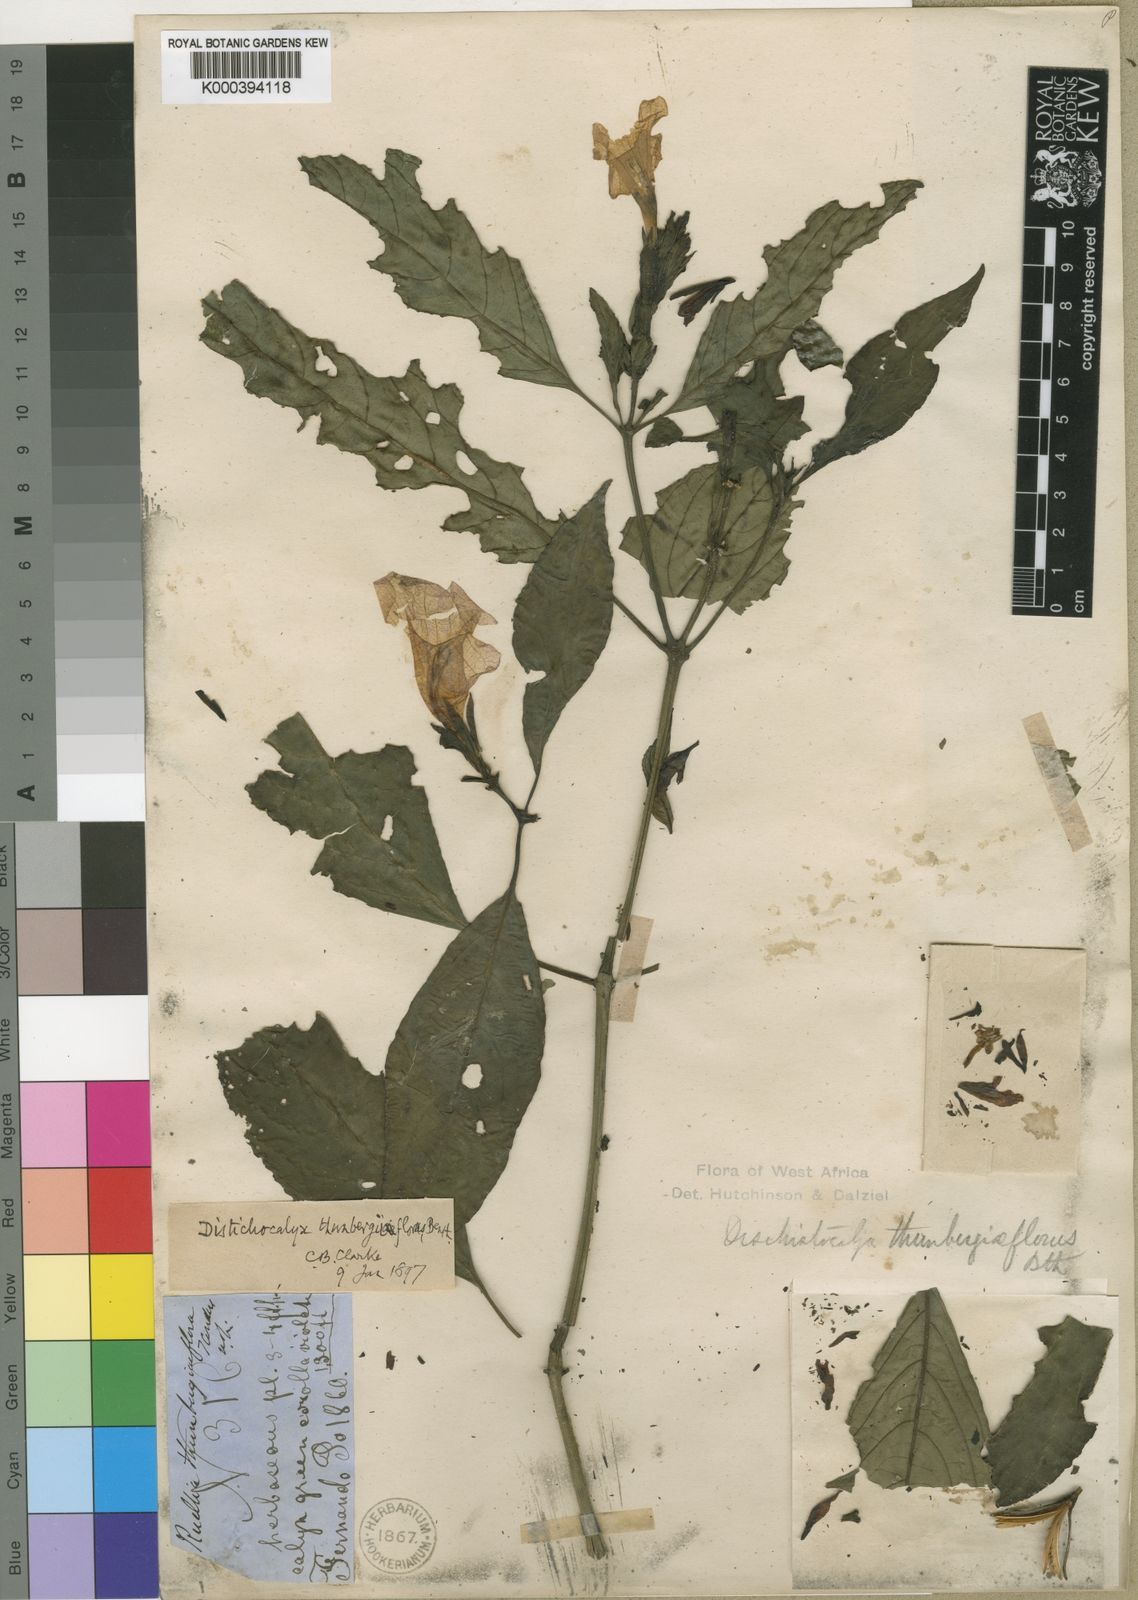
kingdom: Plantae
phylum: Tracheophyta
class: Magnoliopsida
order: Lamiales
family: Acanthaceae
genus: Dischistocalyx
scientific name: Dischistocalyx
